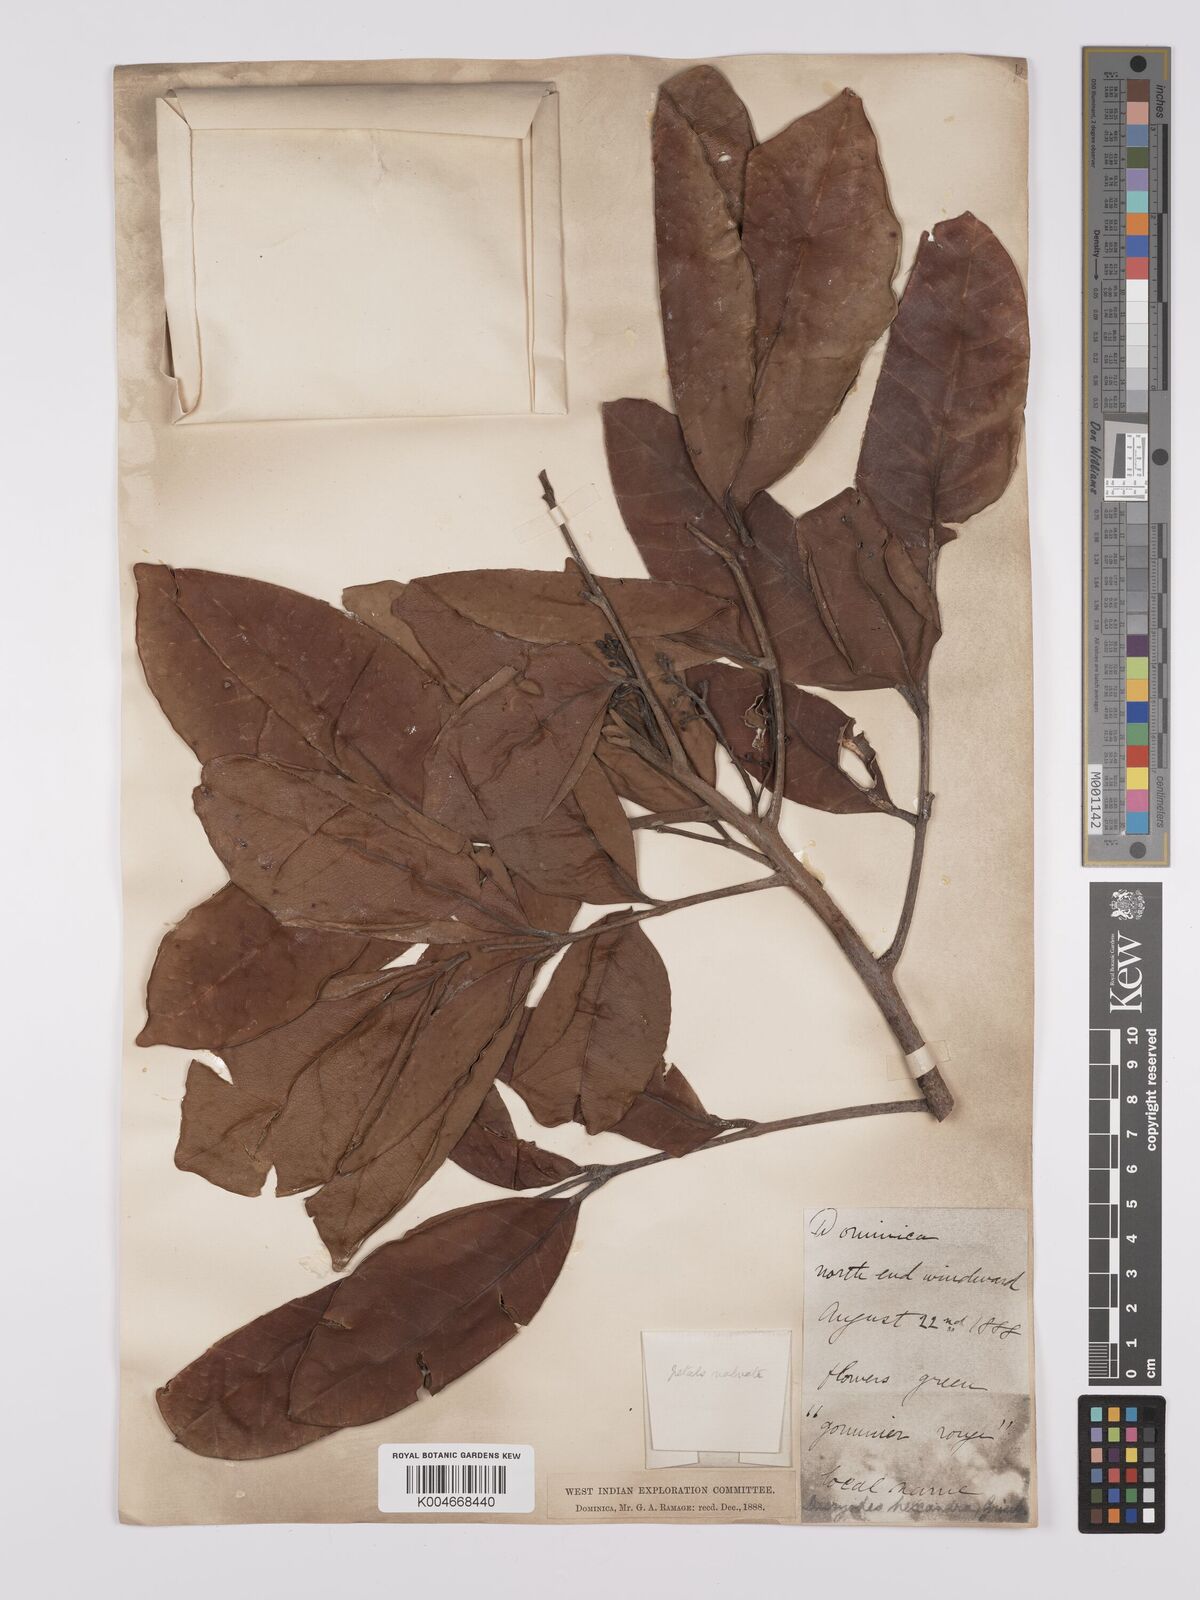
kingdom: Plantae
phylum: Tracheophyta
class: Magnoliopsida
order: Sapindales
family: Burseraceae
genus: Dacryodes
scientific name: Dacryodes excelsa
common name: Candlewood
